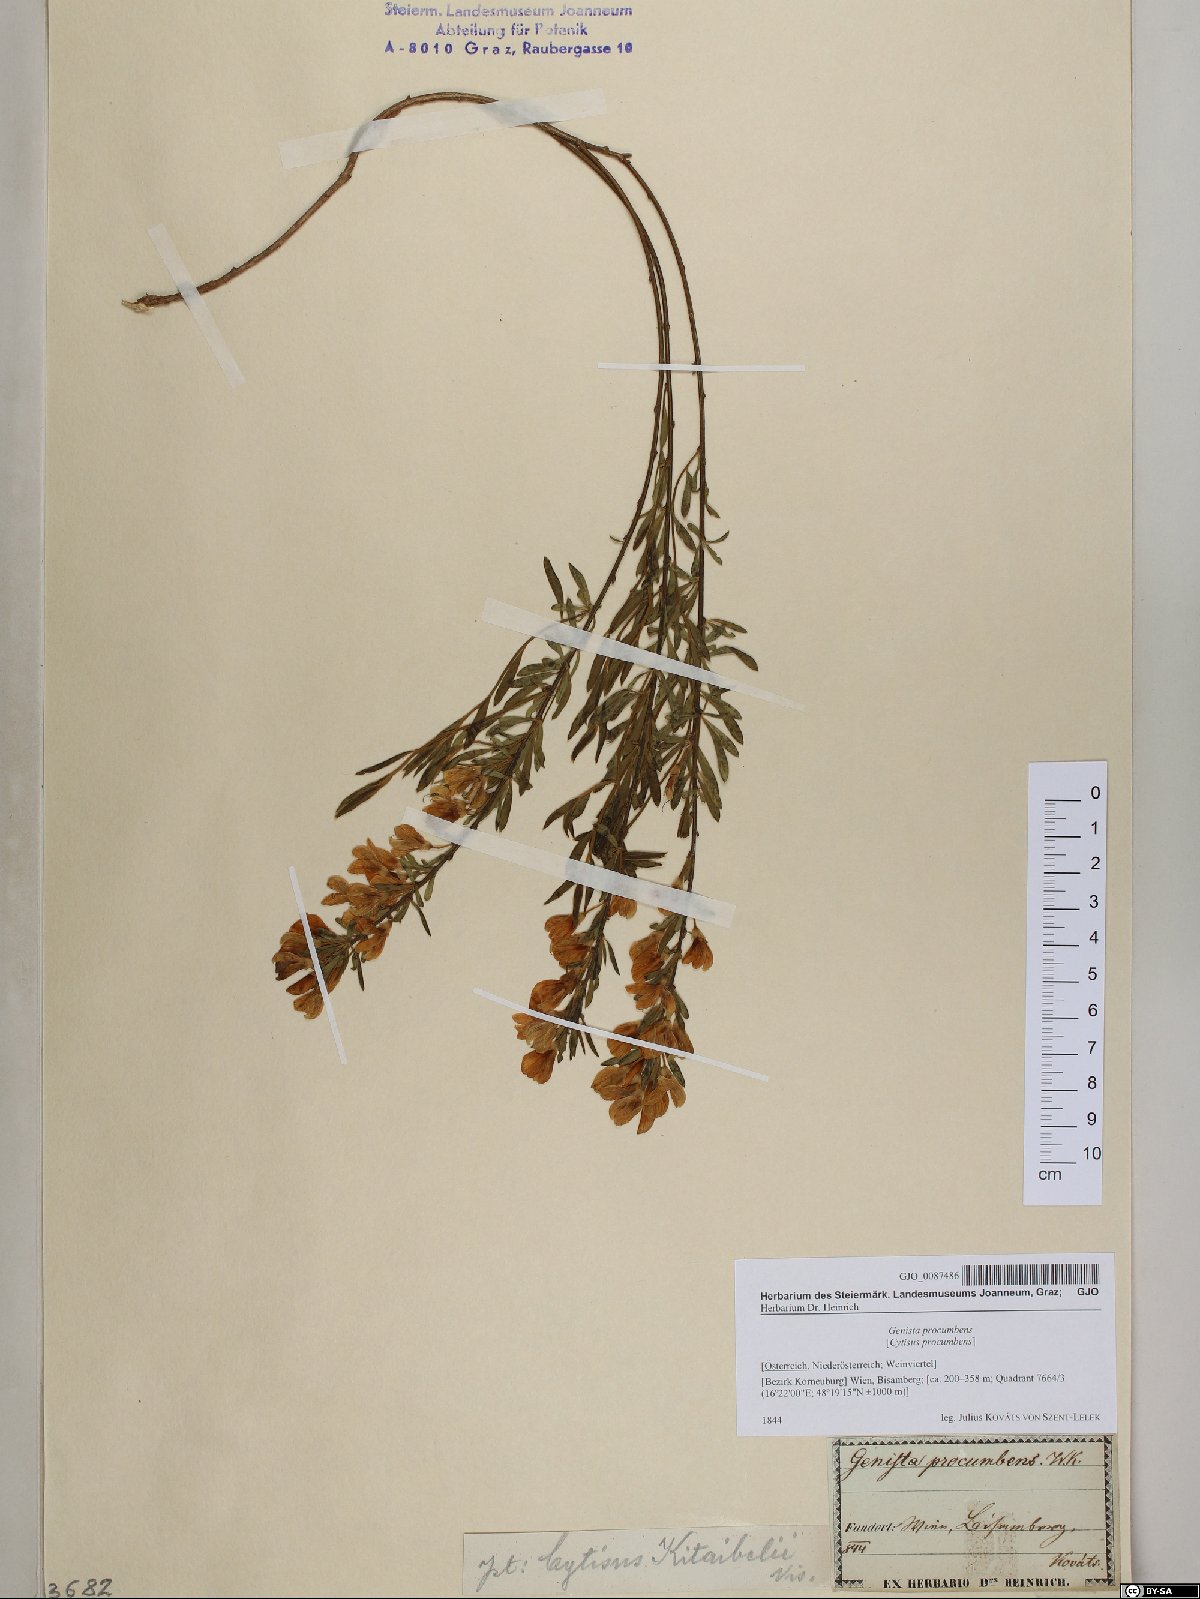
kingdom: Plantae
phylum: Tracheophyta
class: Magnoliopsida
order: Fabales
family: Fabaceae
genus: Cytisus
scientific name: Cytisus procumbens
